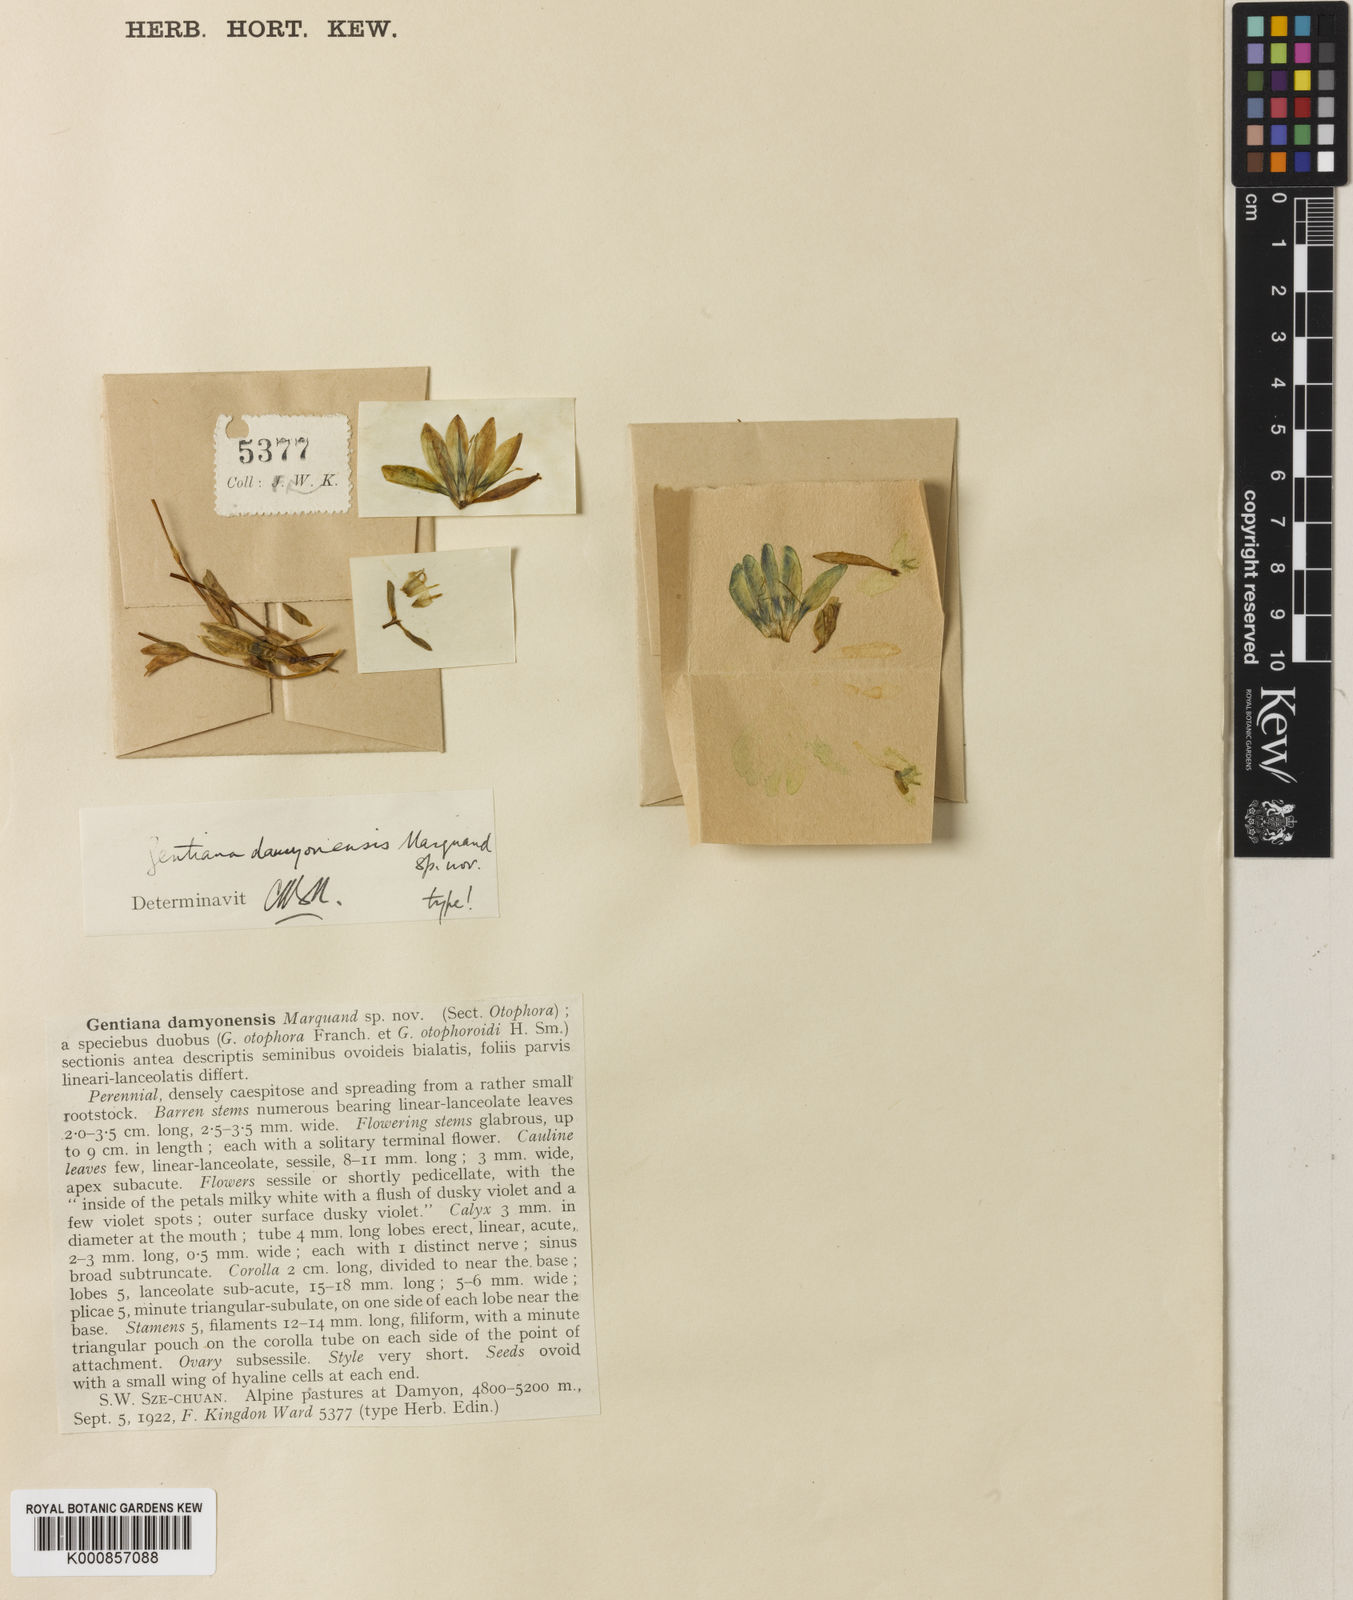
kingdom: Plantae
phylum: Tracheophyta
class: Magnoliopsida
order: Gentianales
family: Gentianaceae
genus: Kuepferia
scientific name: Kuepferia damyonensis
